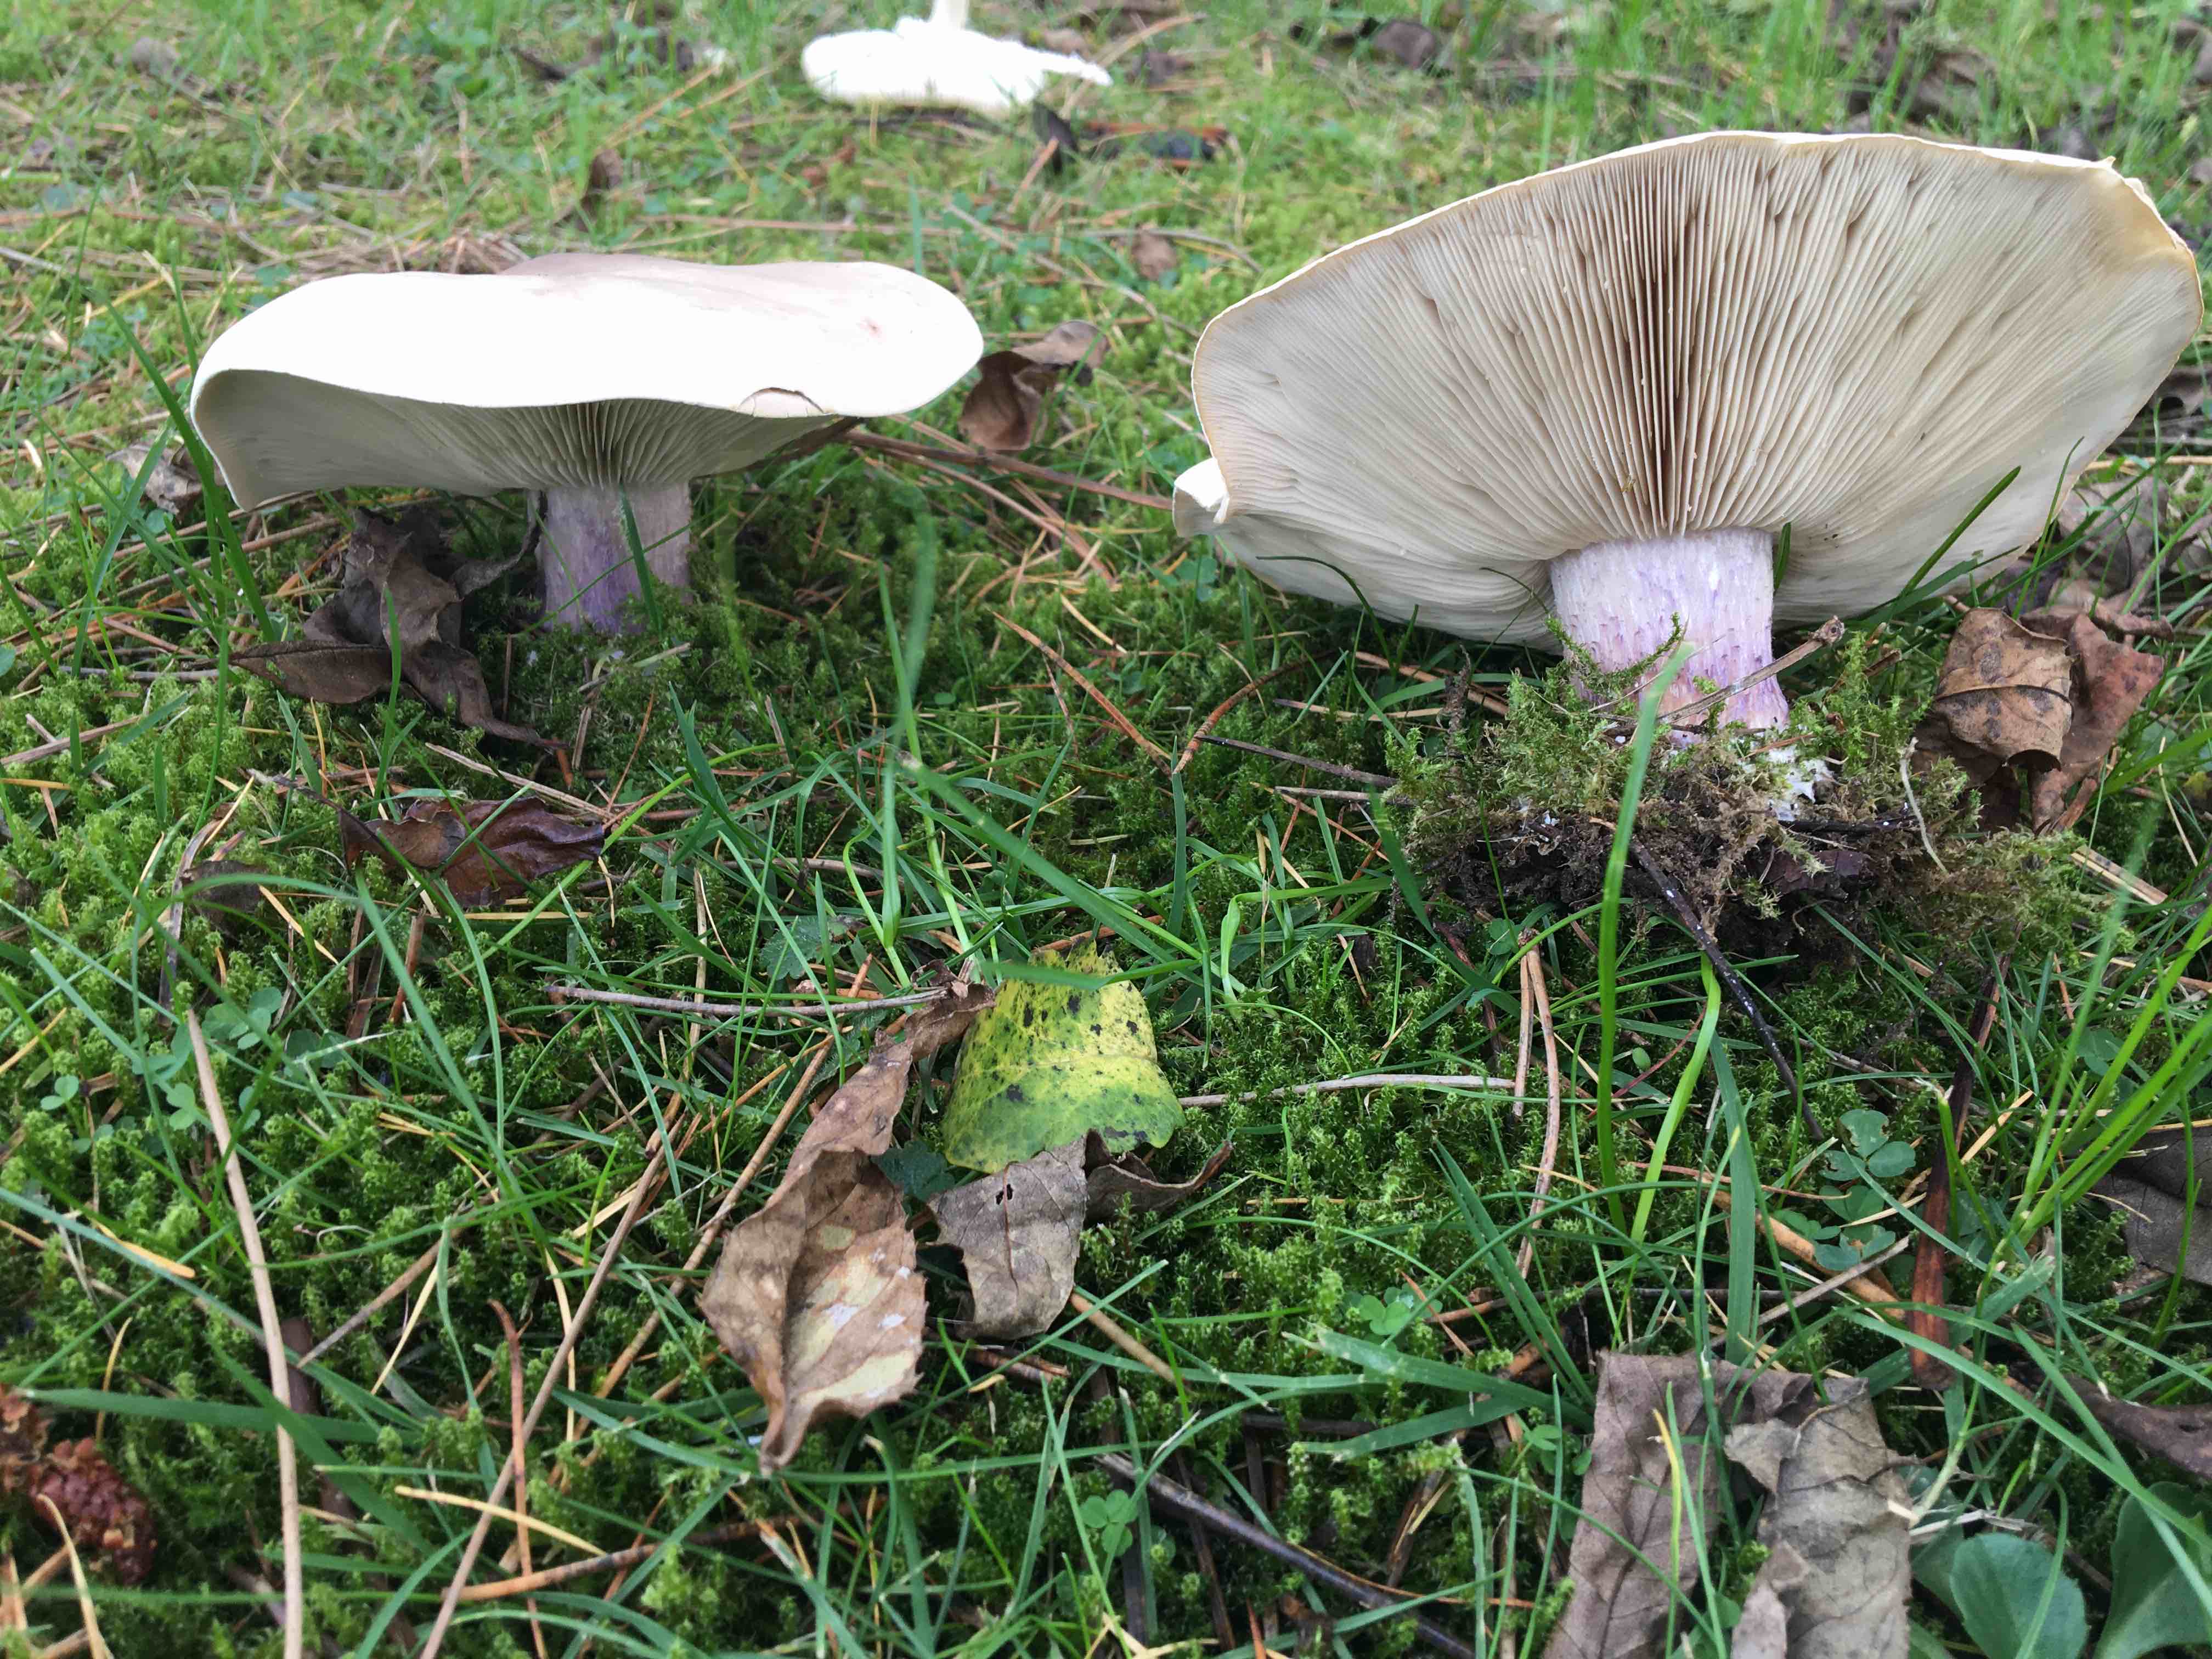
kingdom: Fungi
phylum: Basidiomycota
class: Agaricomycetes
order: Agaricales
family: Tricholomataceae
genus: Lepista
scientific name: Lepista personata
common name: bleg hekseringshat
